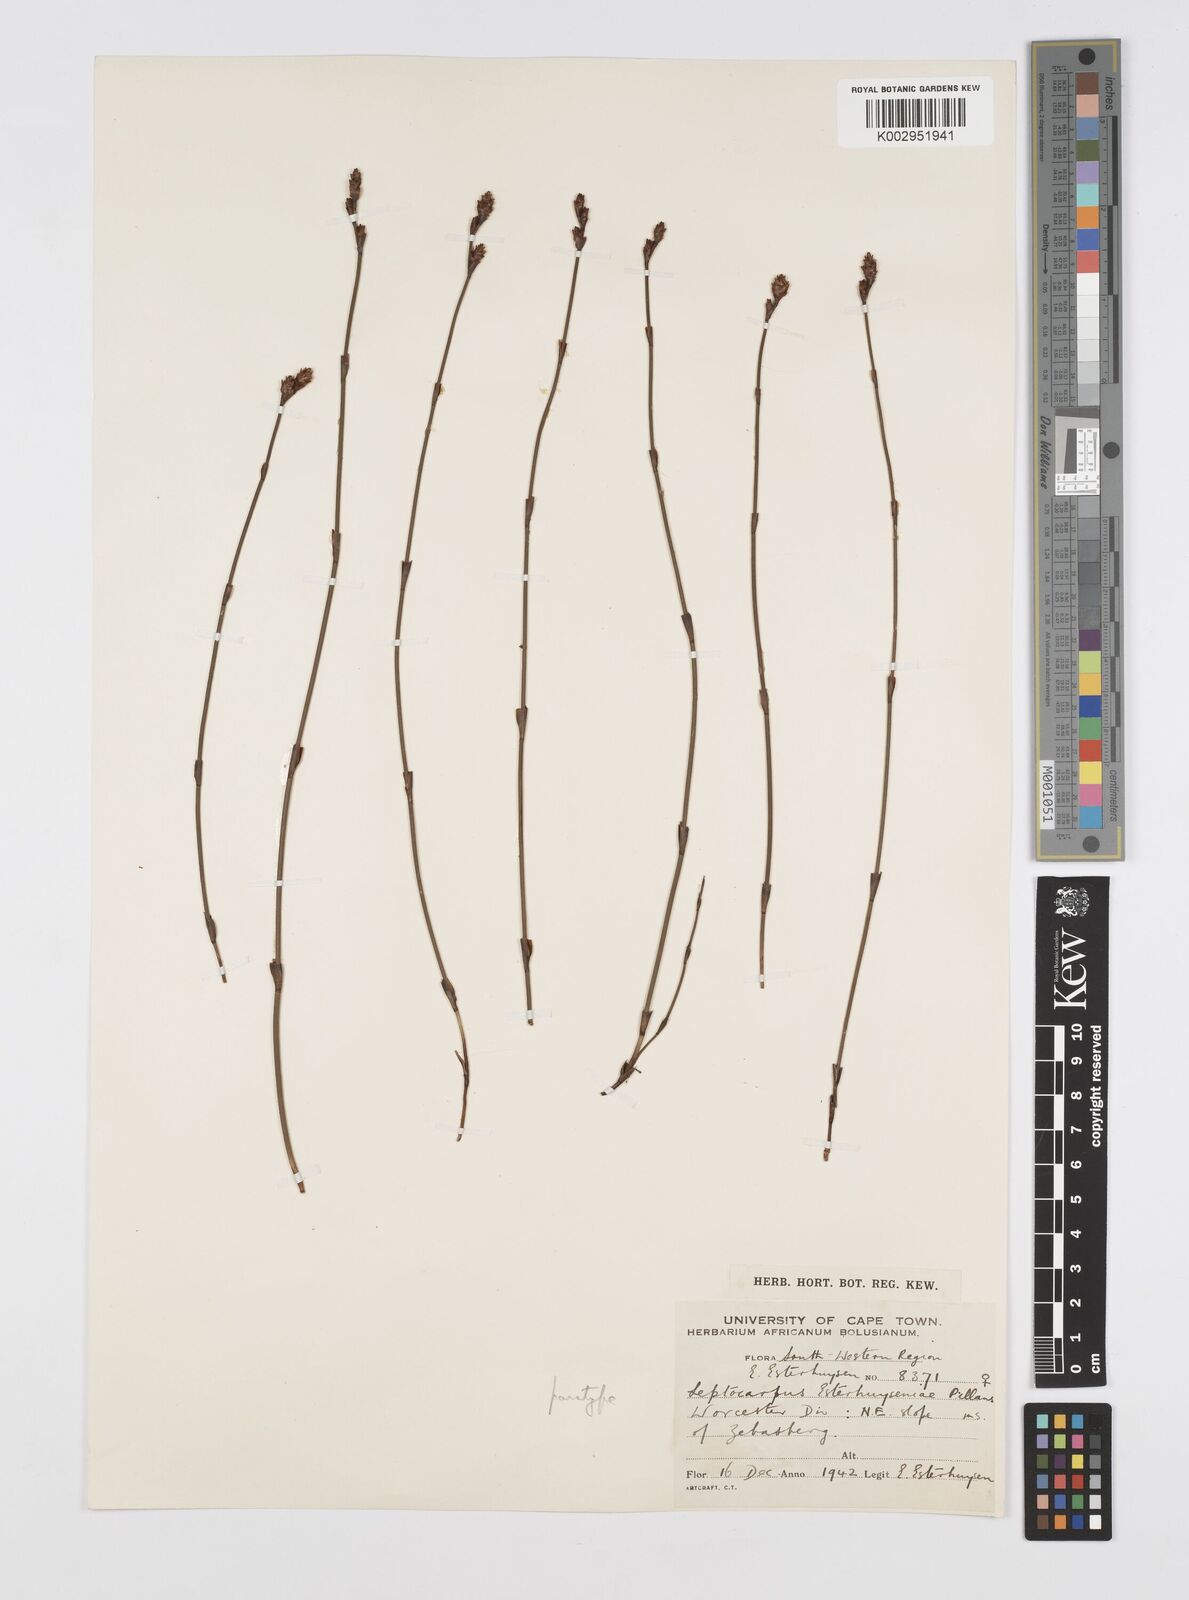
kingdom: Plantae
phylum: Tracheophyta
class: Liliopsida
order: Poales
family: Restionaceae
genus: Restio
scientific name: Restio esterhuyseniae
